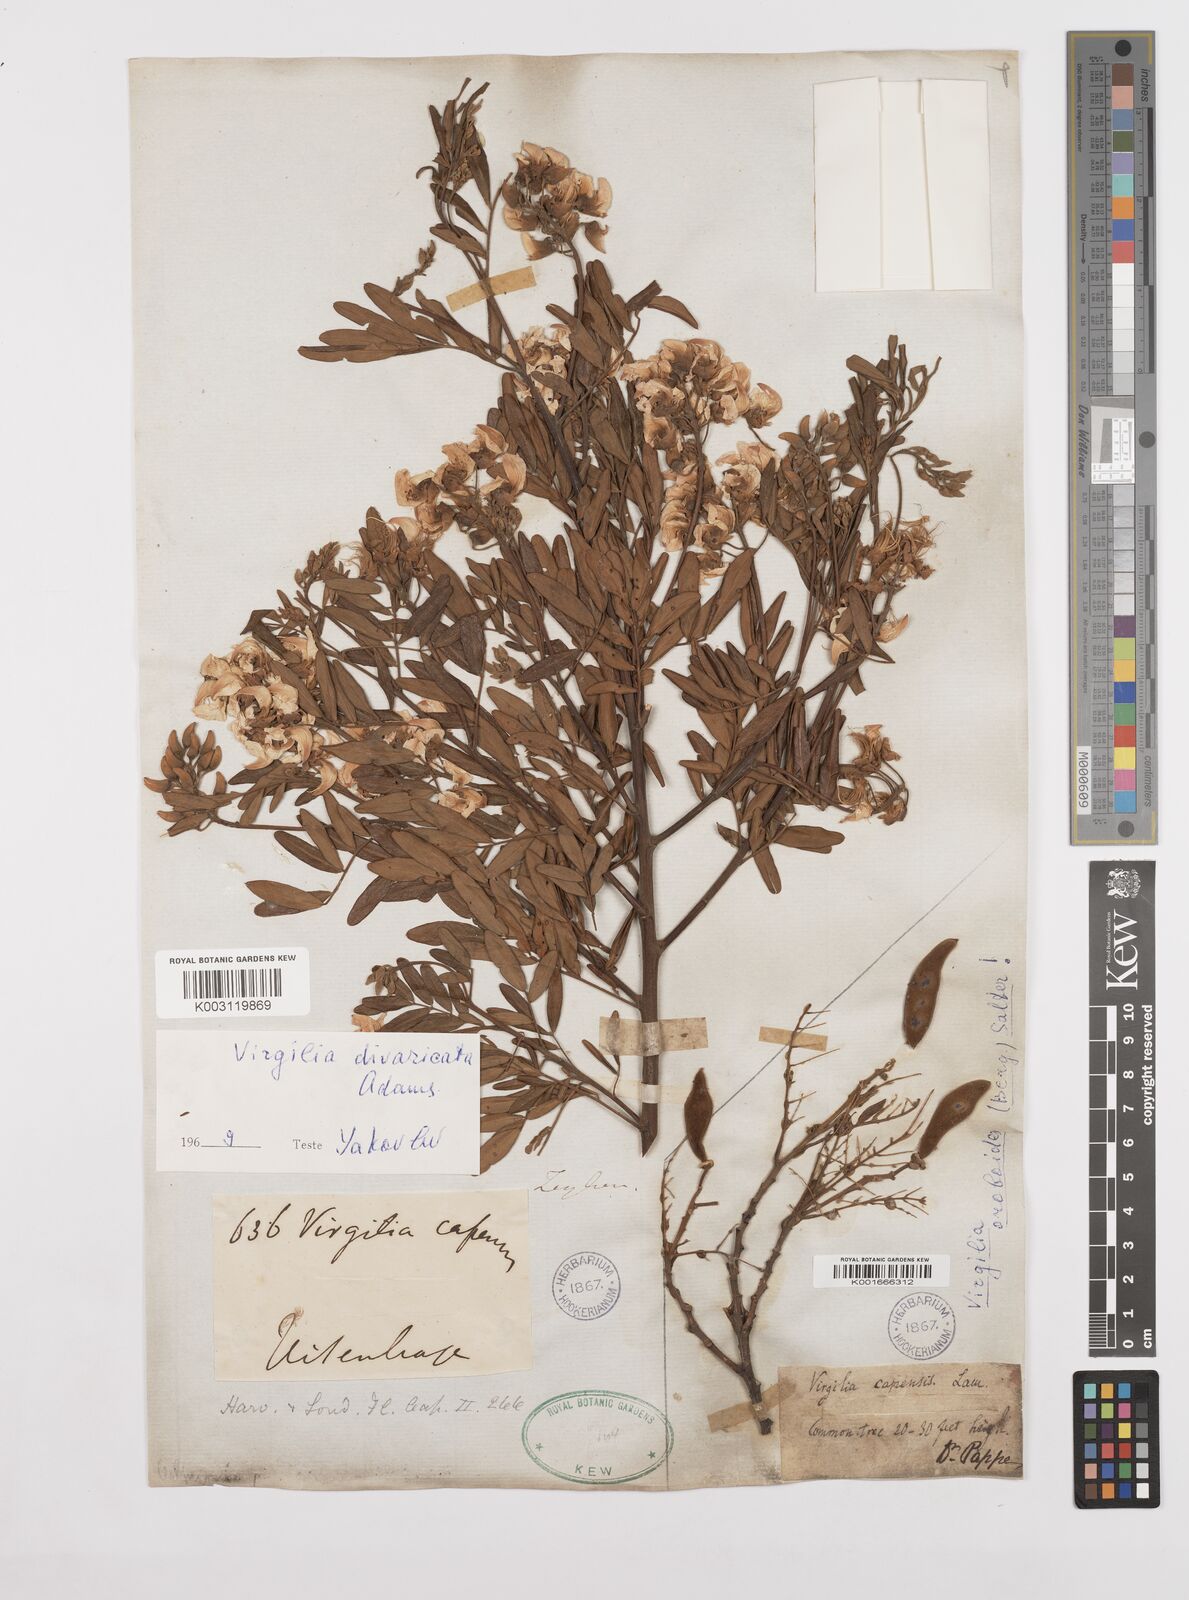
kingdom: Plantae
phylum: Tracheophyta
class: Magnoliopsida
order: Fabales
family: Fabaceae
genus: Virgilia
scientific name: Virgilia divaricata
